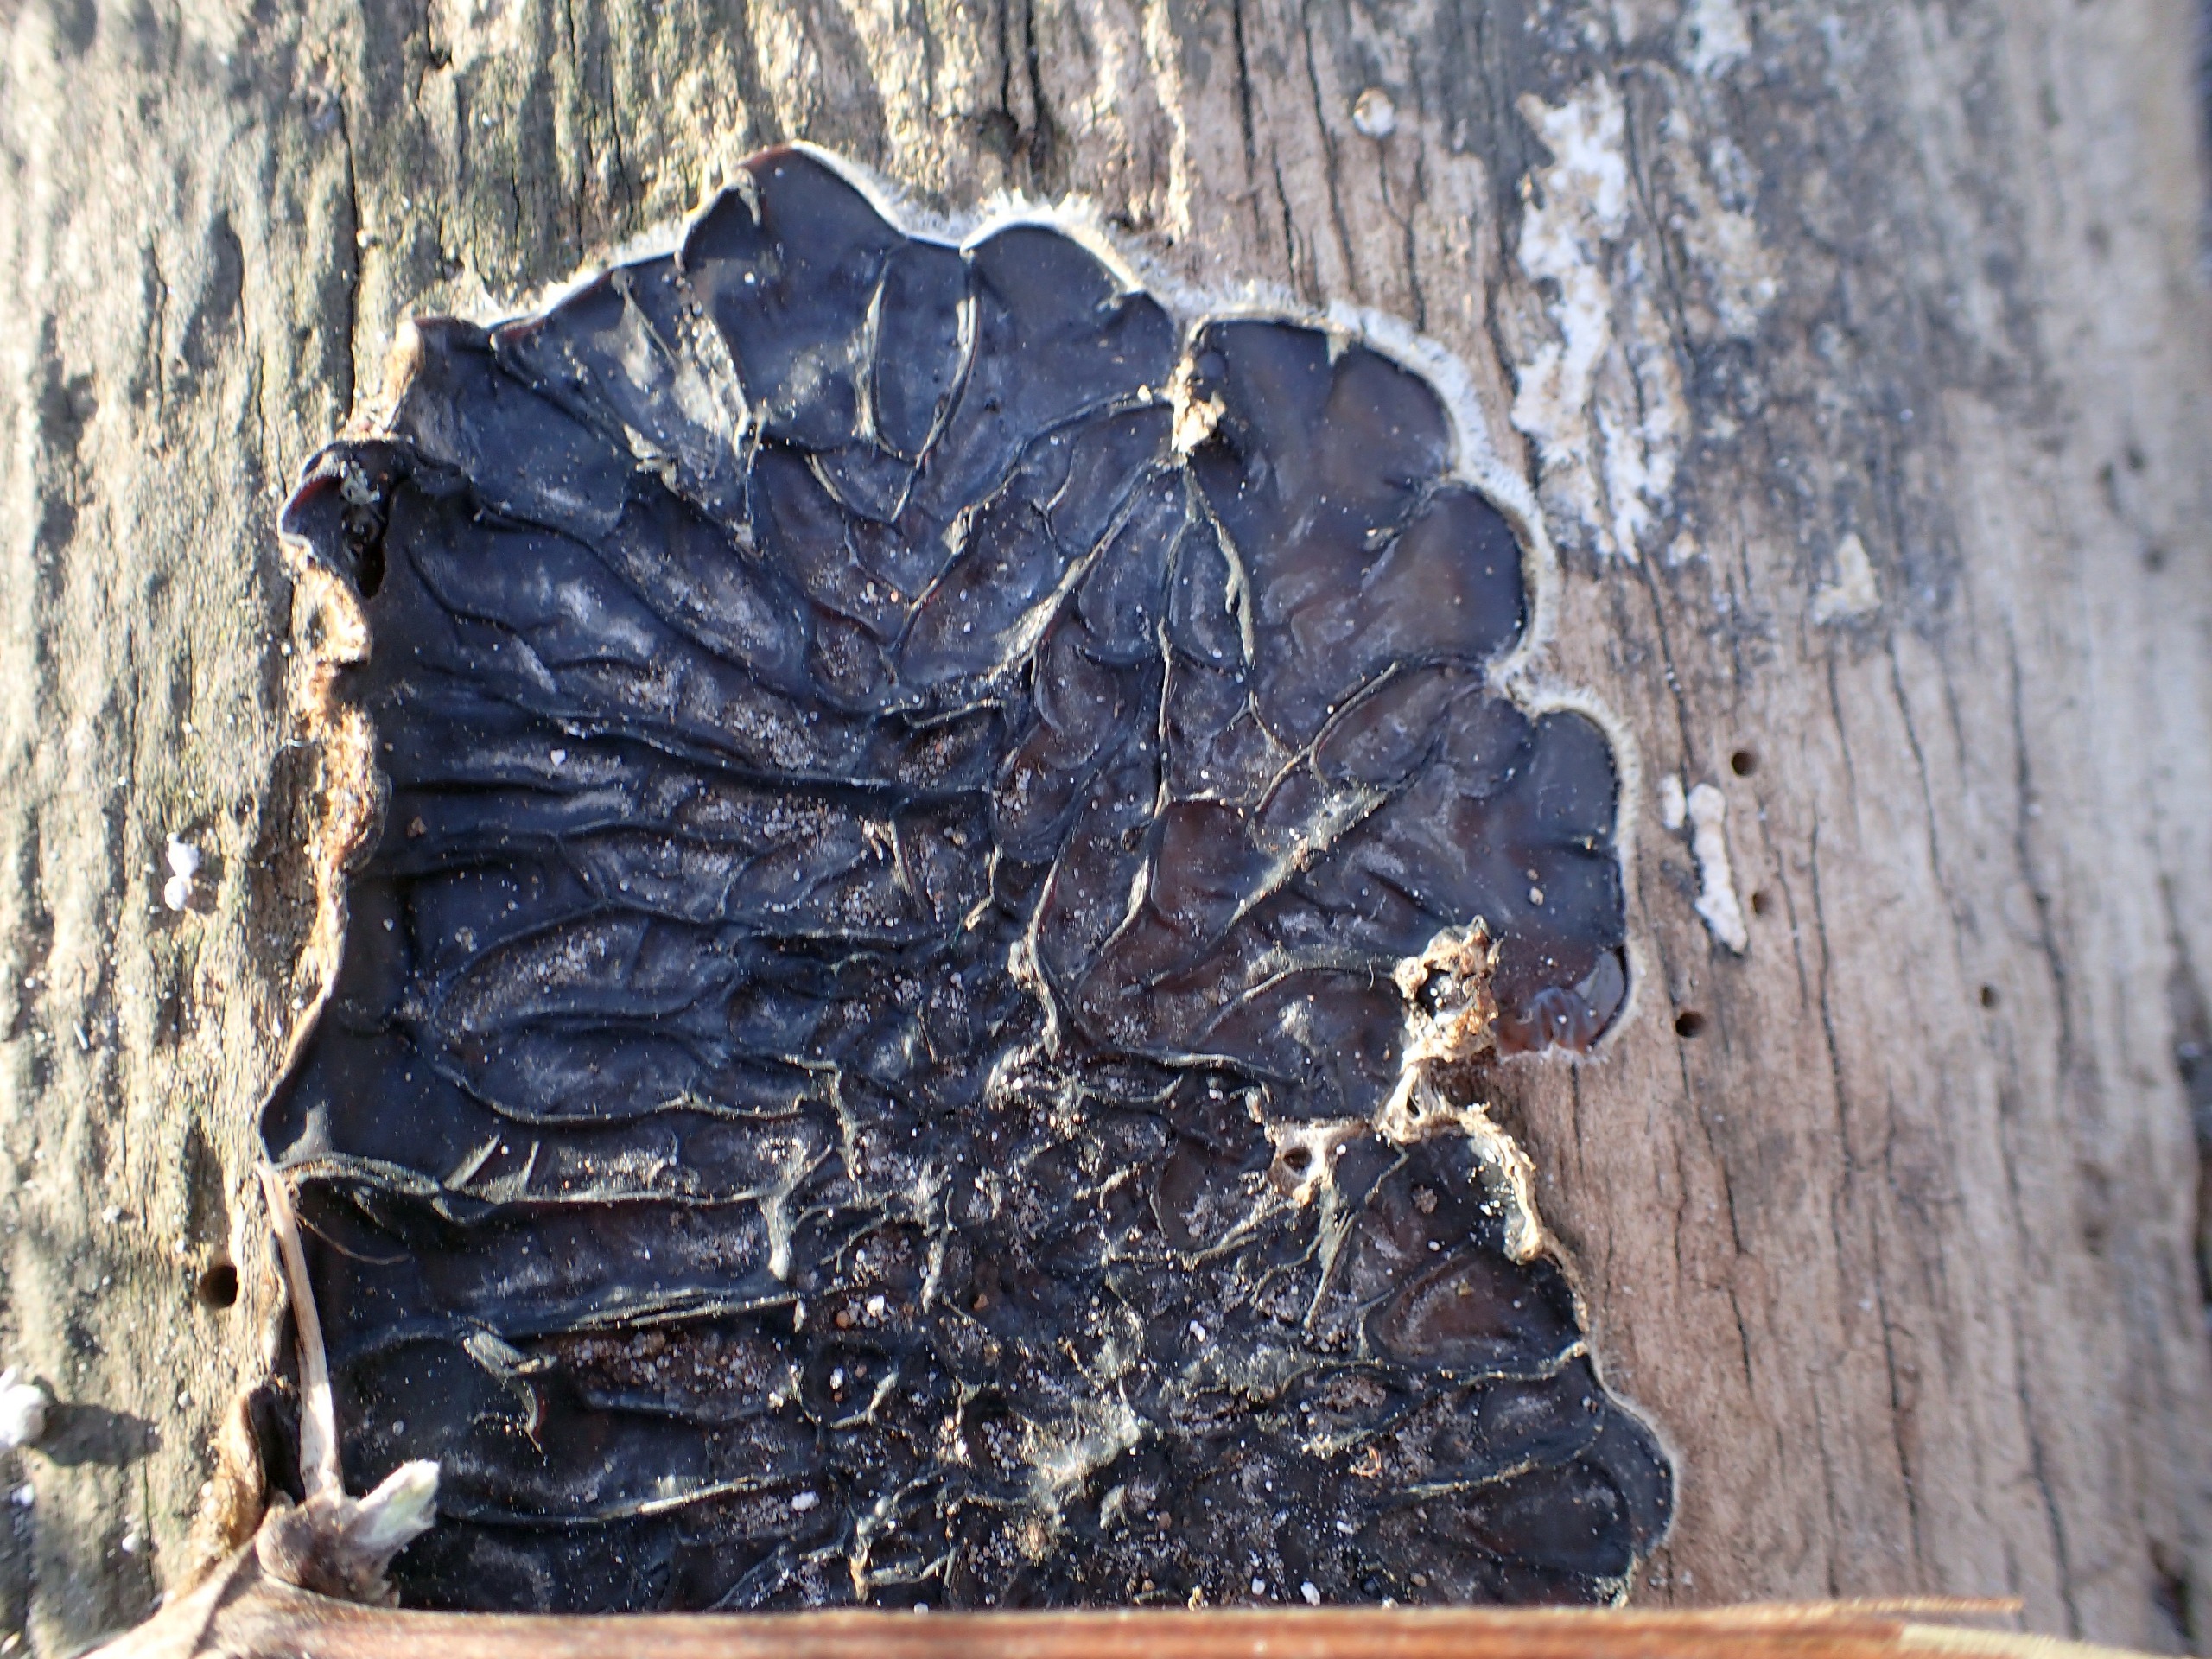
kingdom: Fungi
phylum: Basidiomycota
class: Agaricomycetes
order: Auriculariales
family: Auriculariaceae
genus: Auricularia
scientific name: Auricularia mesenterica
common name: Håret judasøre
